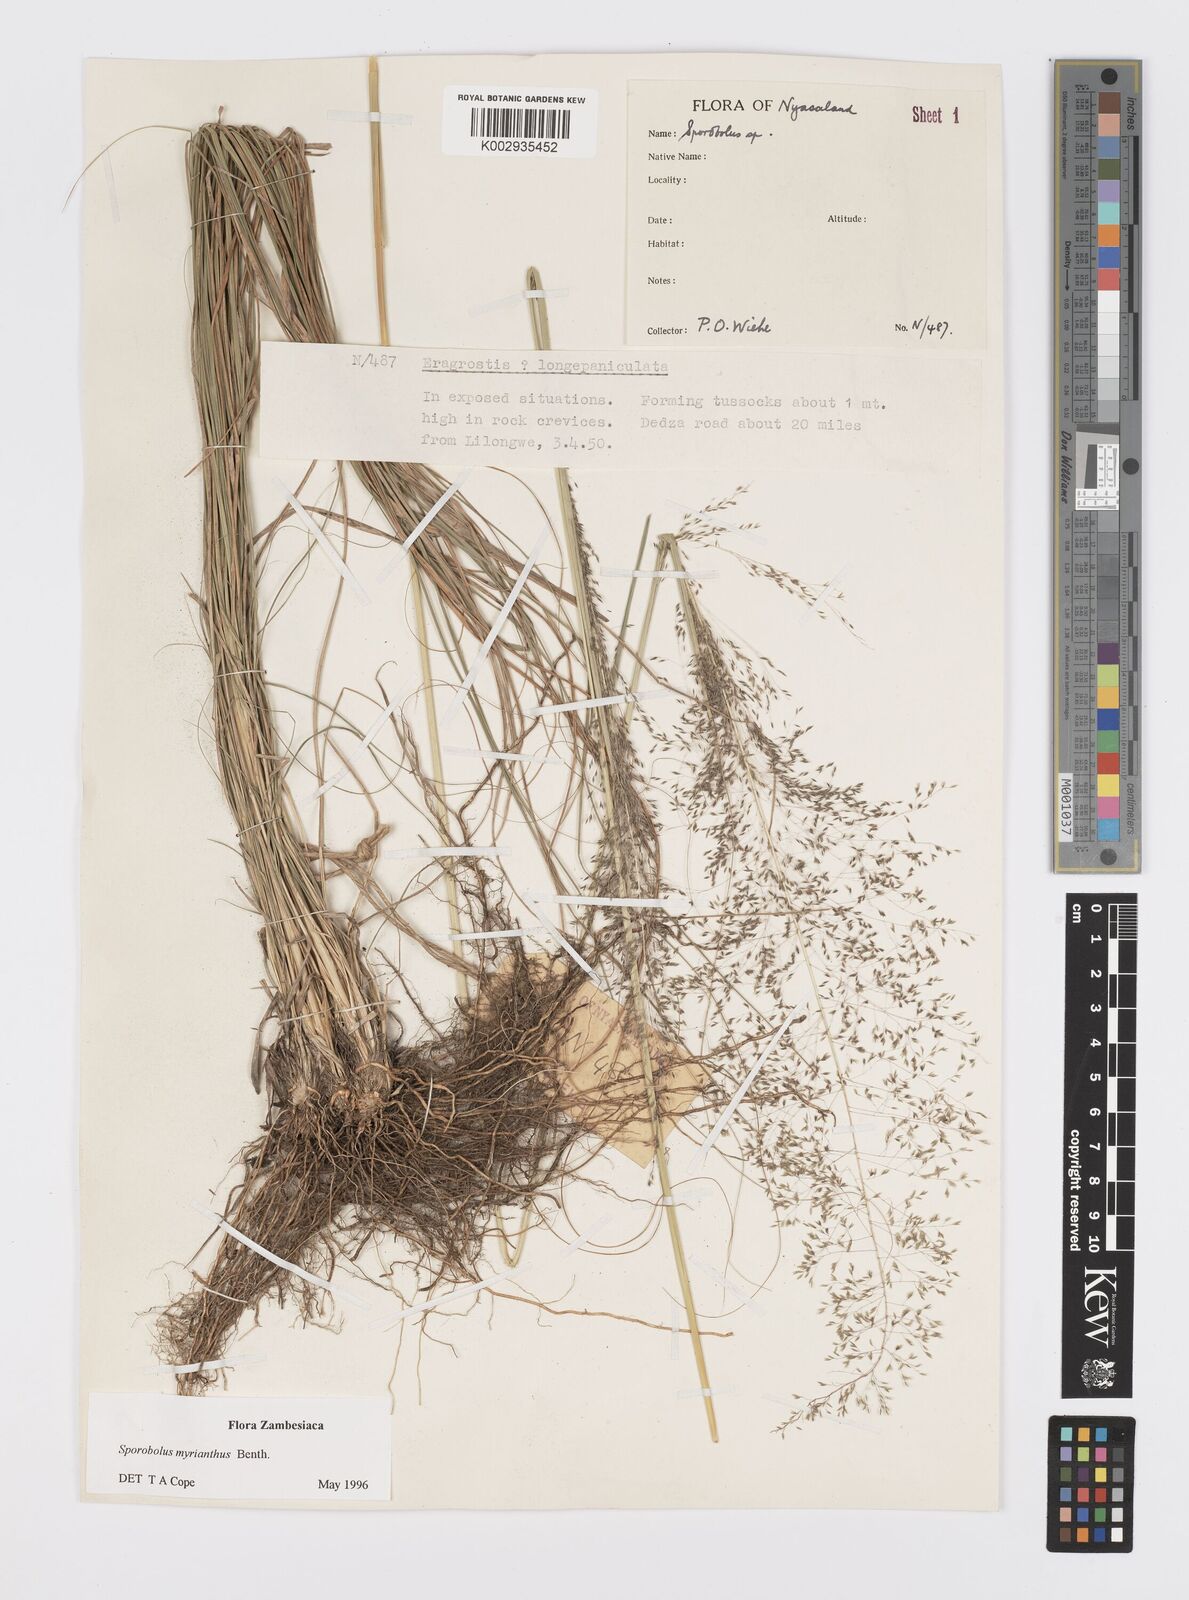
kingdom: Plantae
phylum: Tracheophyta
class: Liliopsida
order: Poales
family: Poaceae
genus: Sporobolus
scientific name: Sporobolus myrianthus
